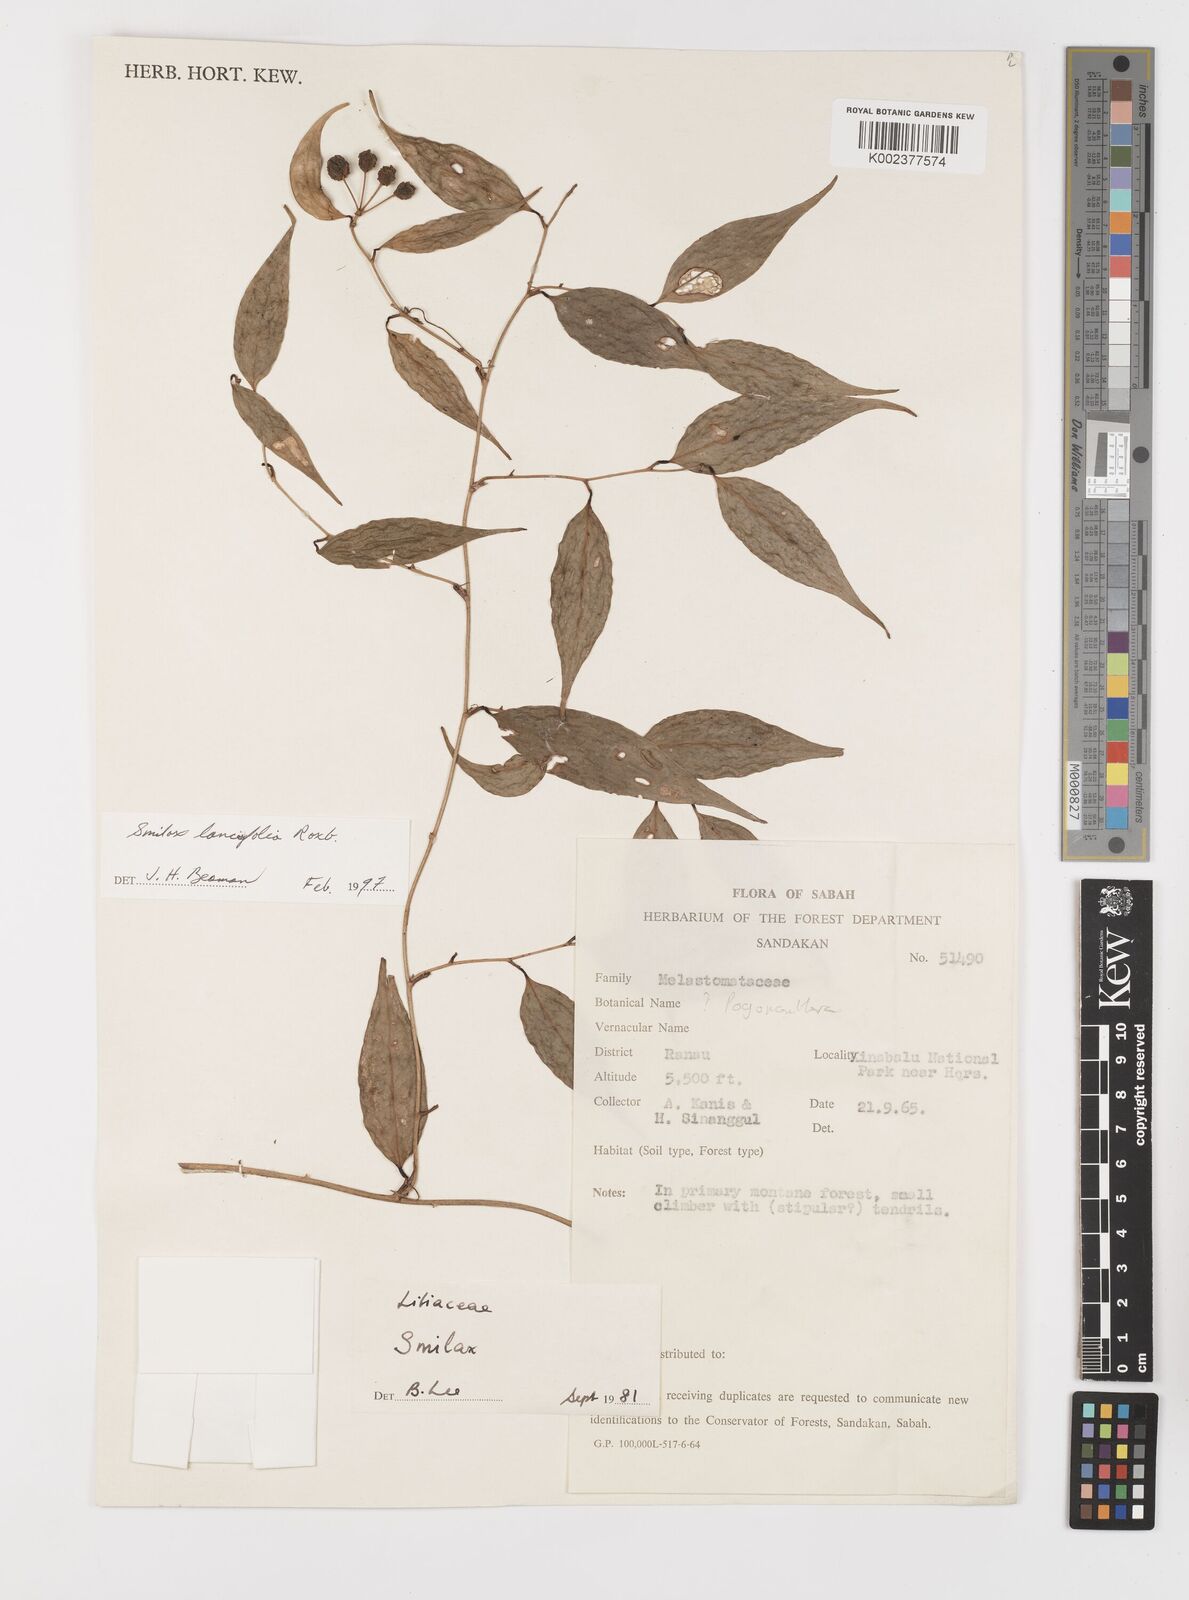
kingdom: Plantae
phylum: Tracheophyta
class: Liliopsida
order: Liliales
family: Smilacaceae
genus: Smilax
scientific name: Smilax lanceifolia
